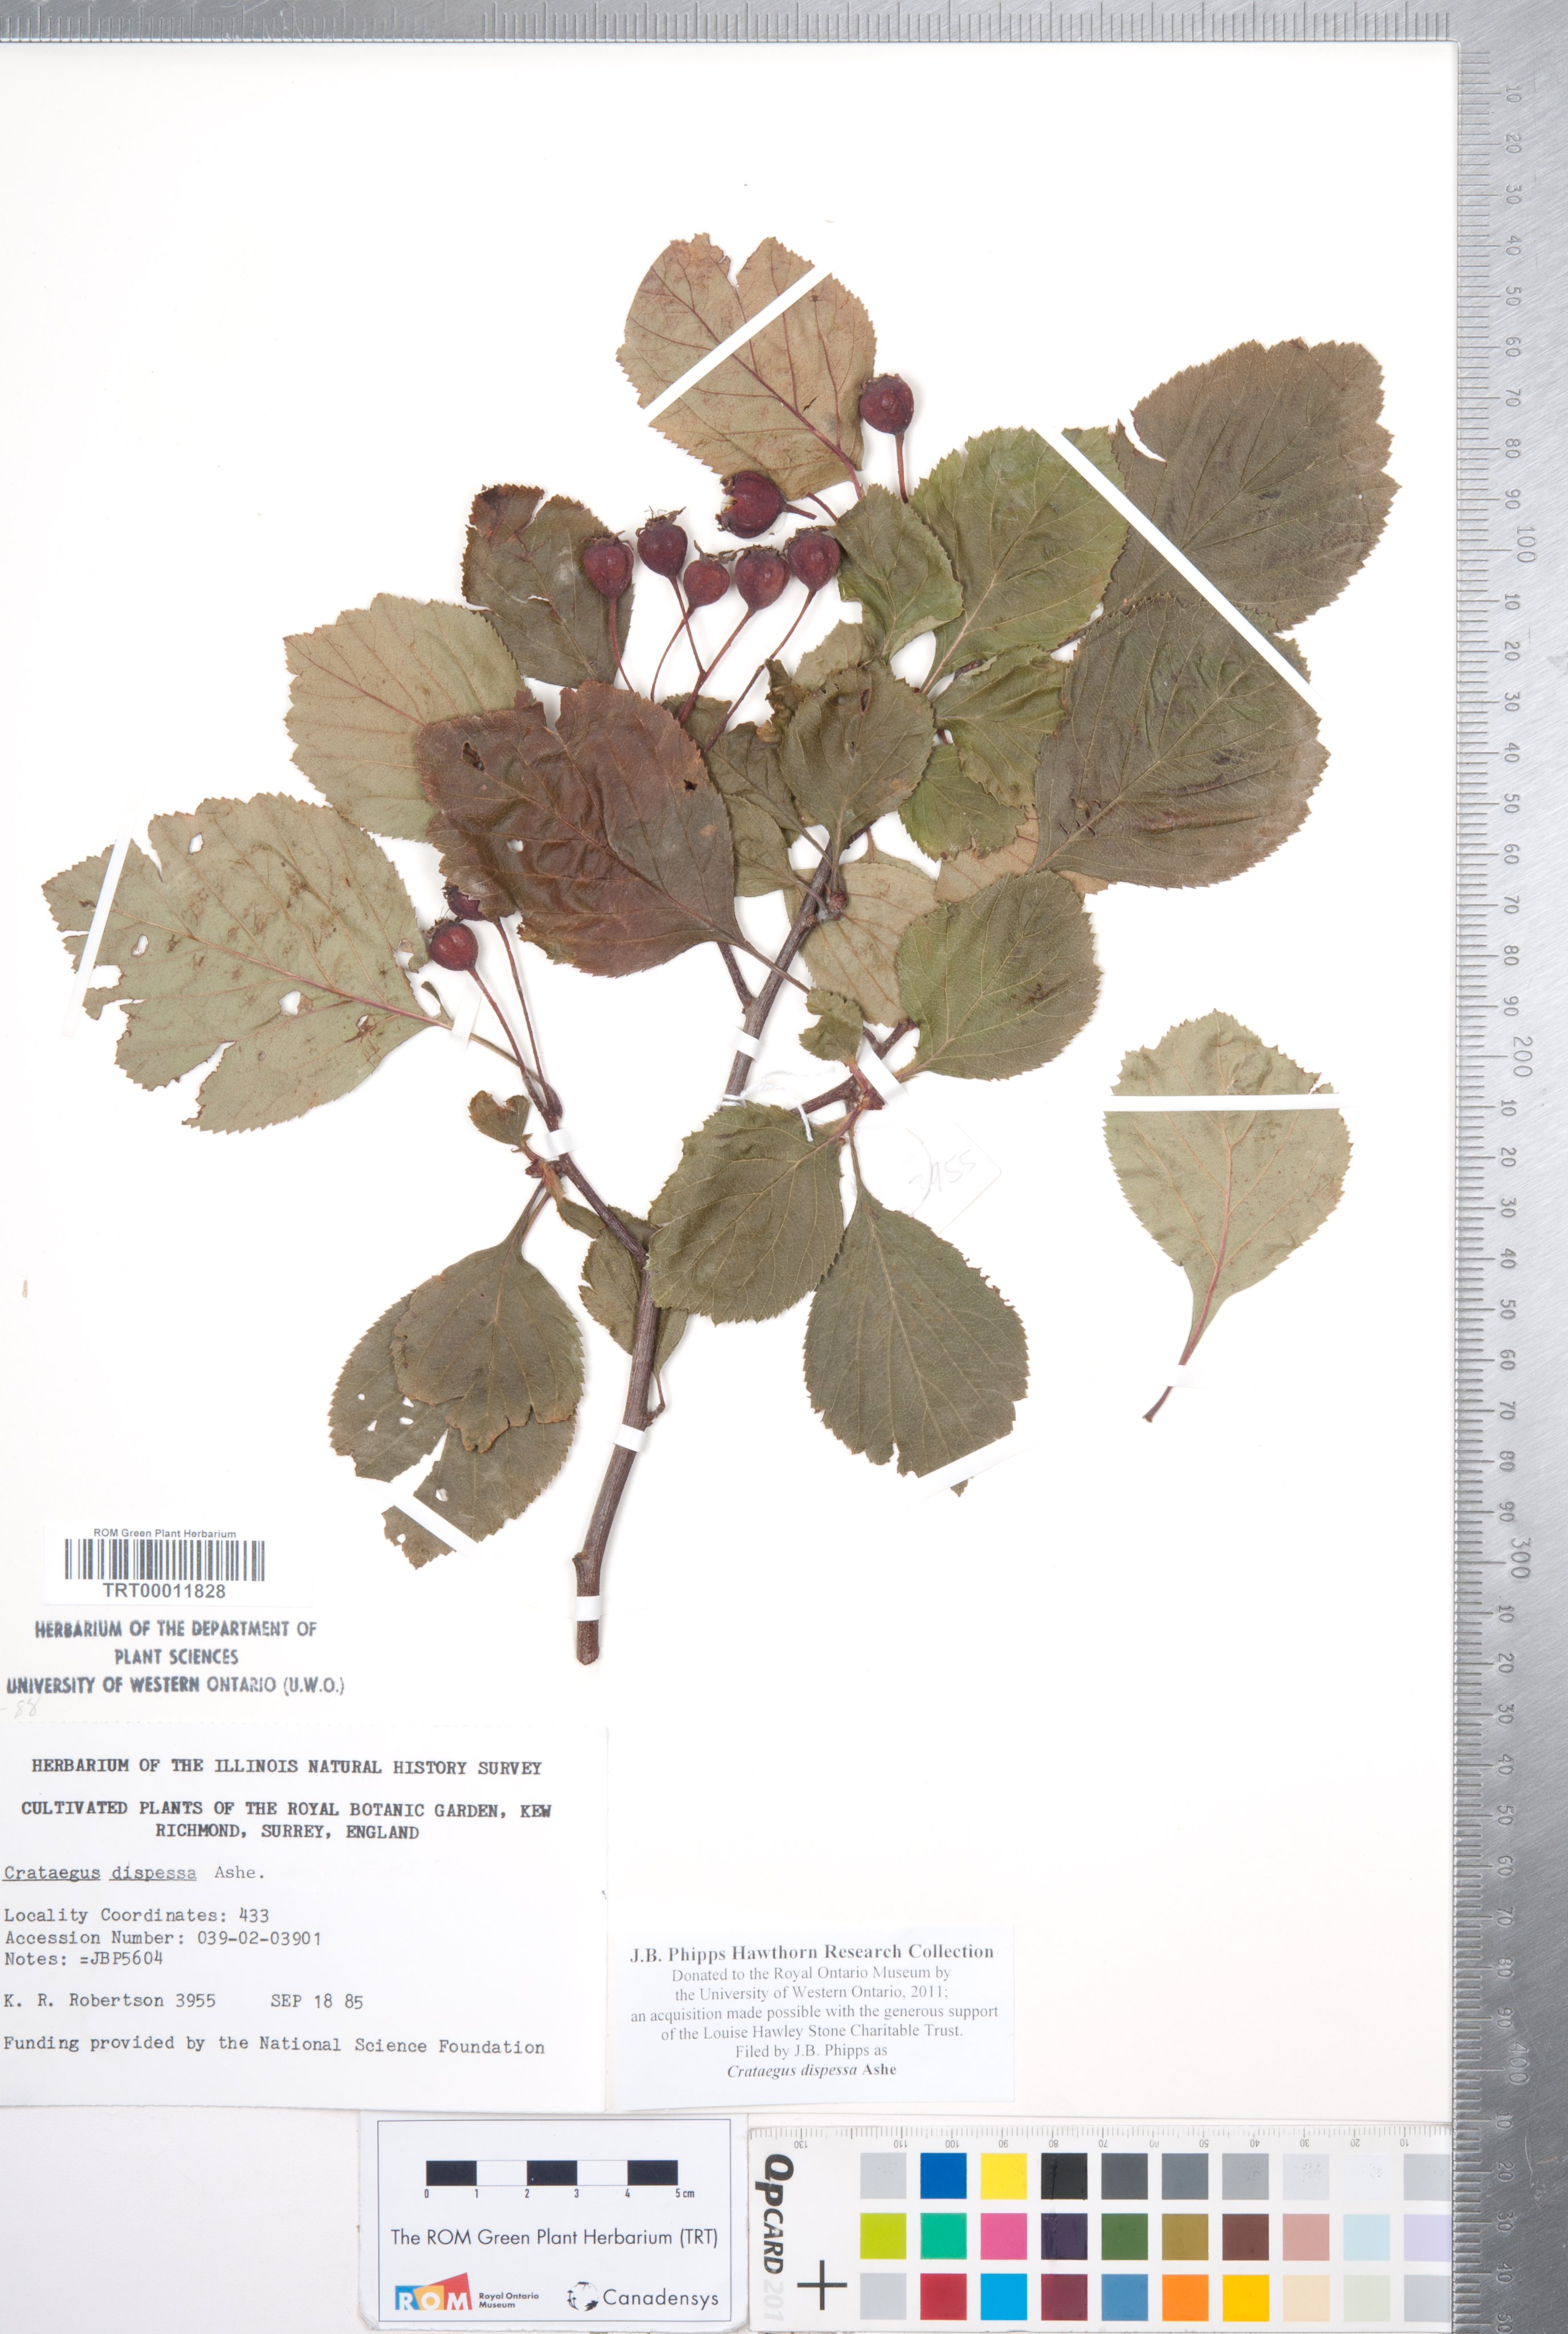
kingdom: Plantae
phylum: Tracheophyta
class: Magnoliopsida
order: Rosales
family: Rosaceae
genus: Crataegus
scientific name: Crataegus dispessa
